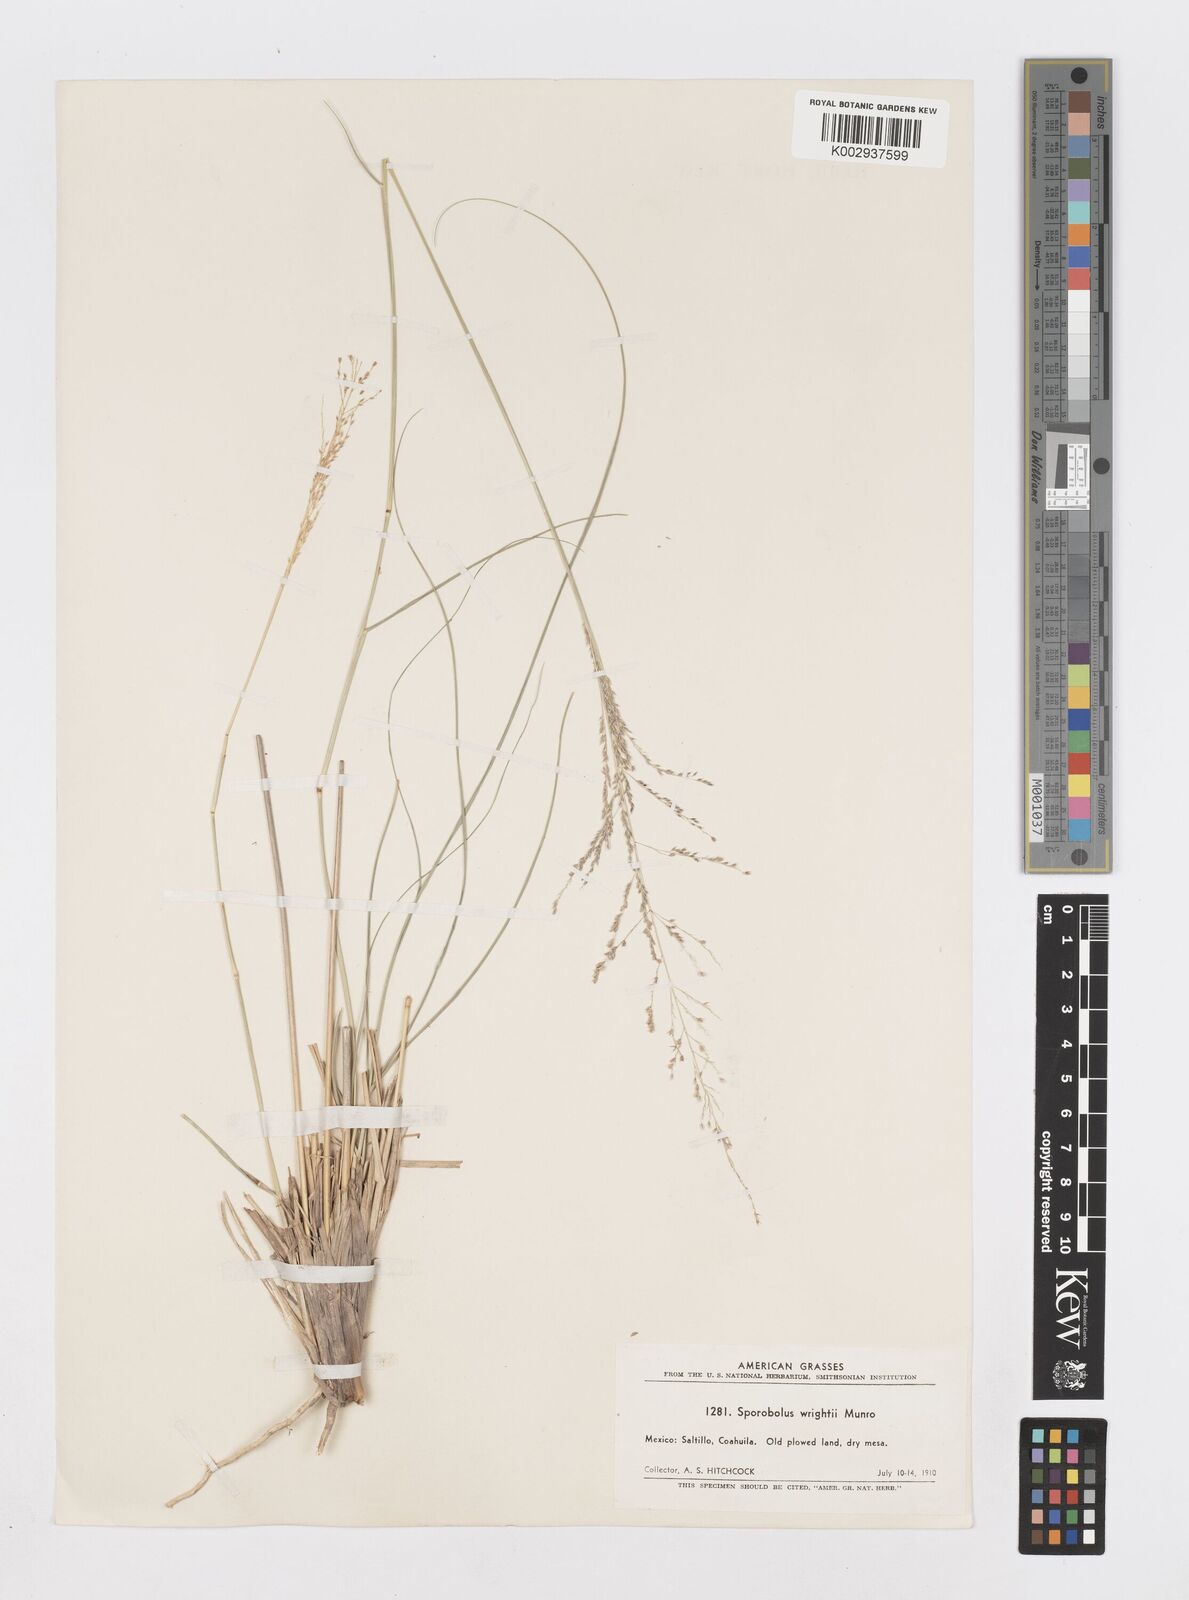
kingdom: Plantae
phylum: Tracheophyta
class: Liliopsida
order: Poales
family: Poaceae
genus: Sporobolus
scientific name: Sporobolus wrightii
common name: Big alkali sacaton
